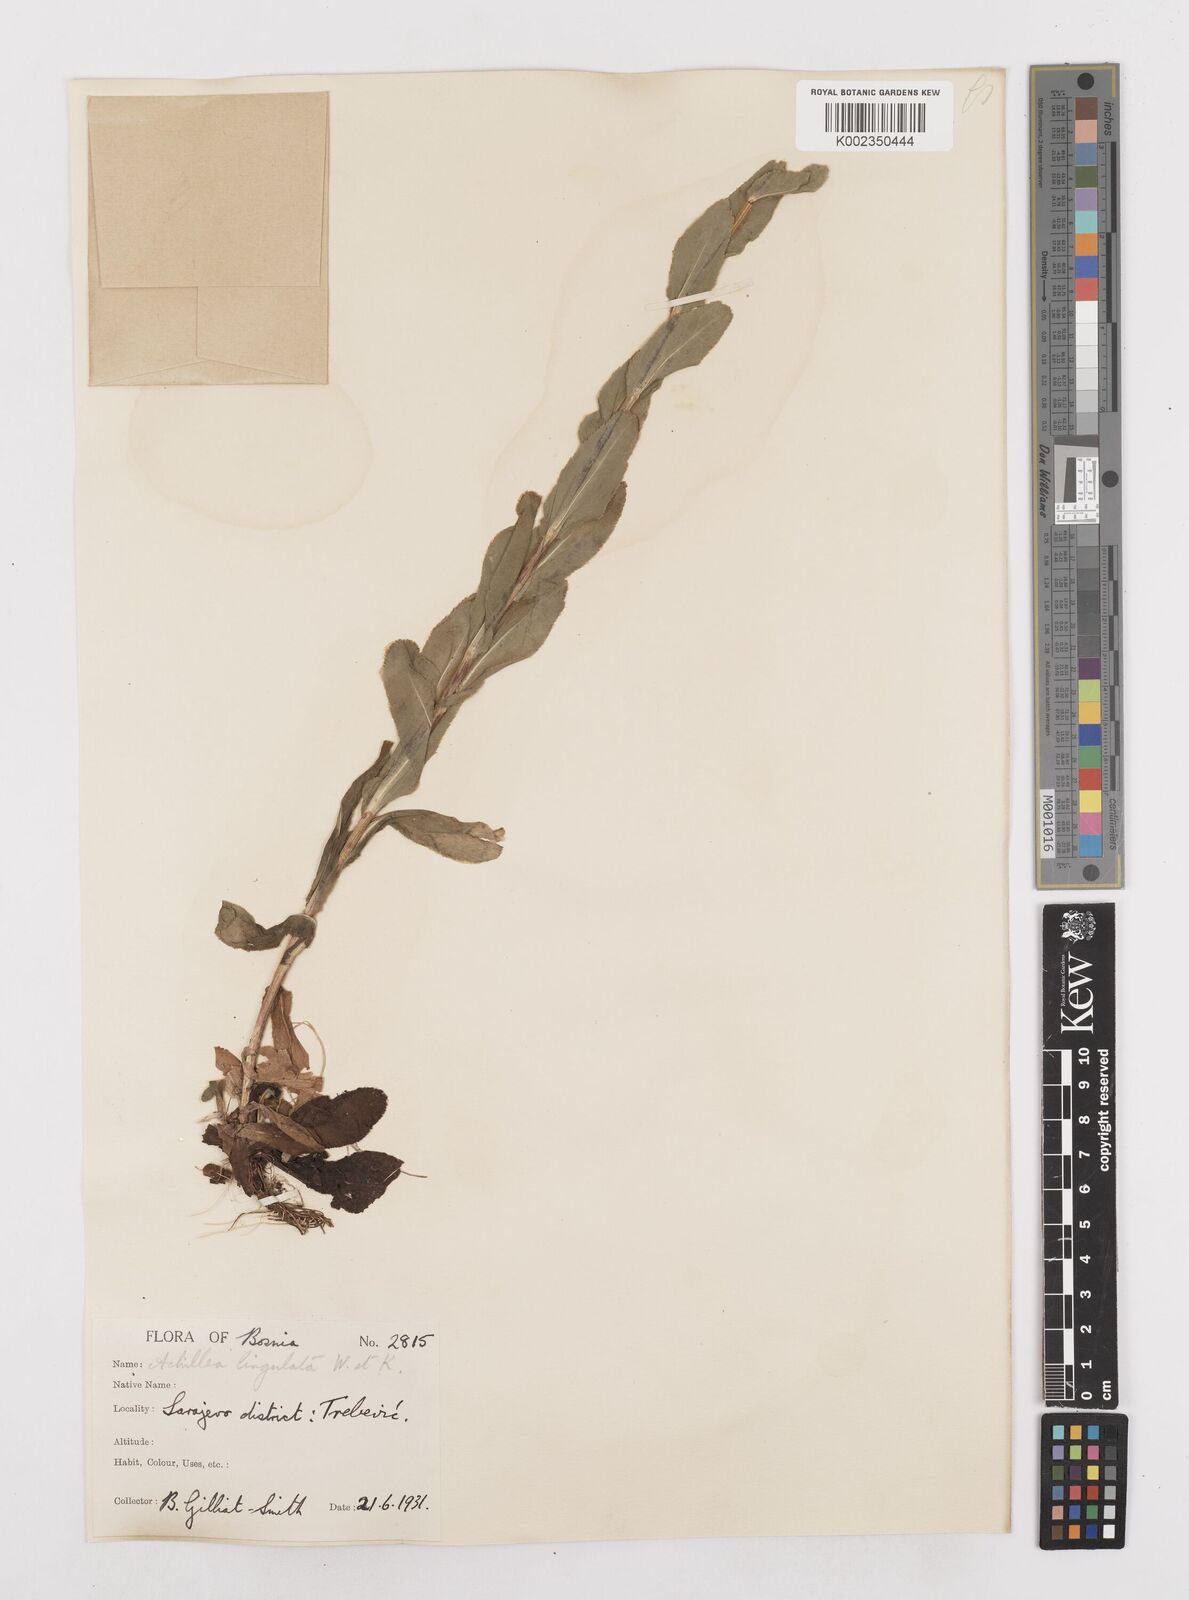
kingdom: Plantae
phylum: Tracheophyta
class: Magnoliopsida
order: Asterales
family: Asteraceae
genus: Achillea
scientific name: Achillea lingulata
